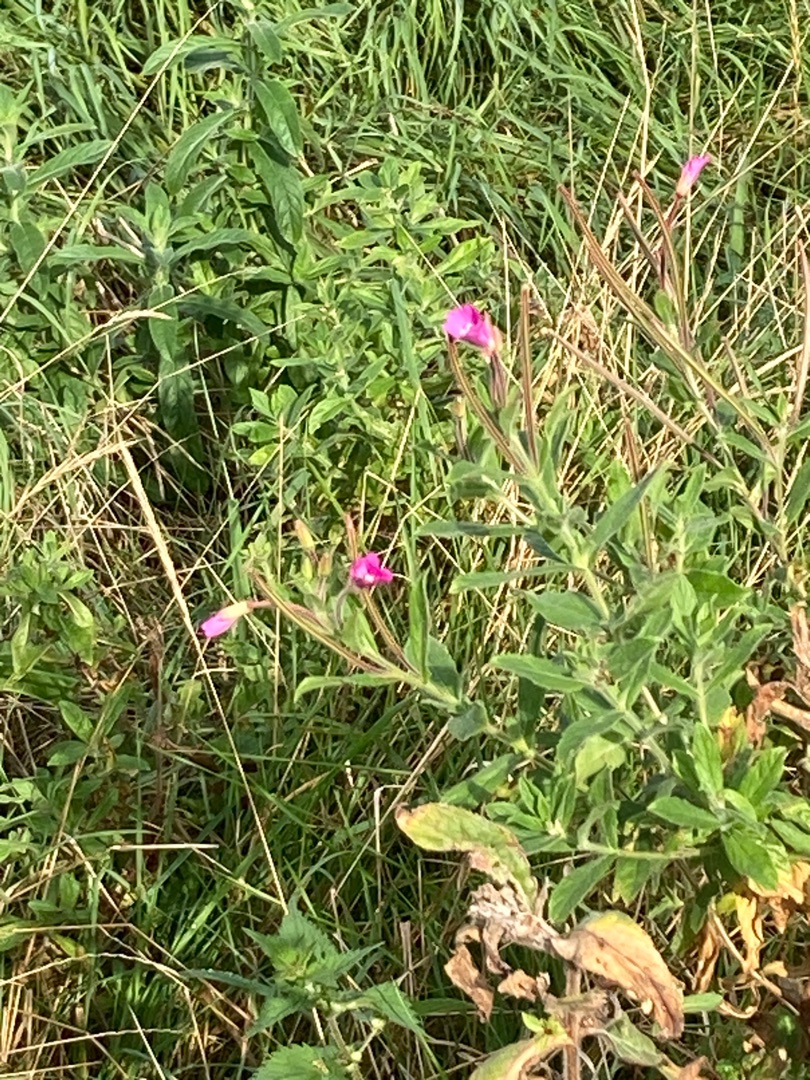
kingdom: Plantae
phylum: Tracheophyta
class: Magnoliopsida
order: Myrtales
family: Onagraceae
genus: Epilobium
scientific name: Epilobium hirsutum
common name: Lådden dueurt
